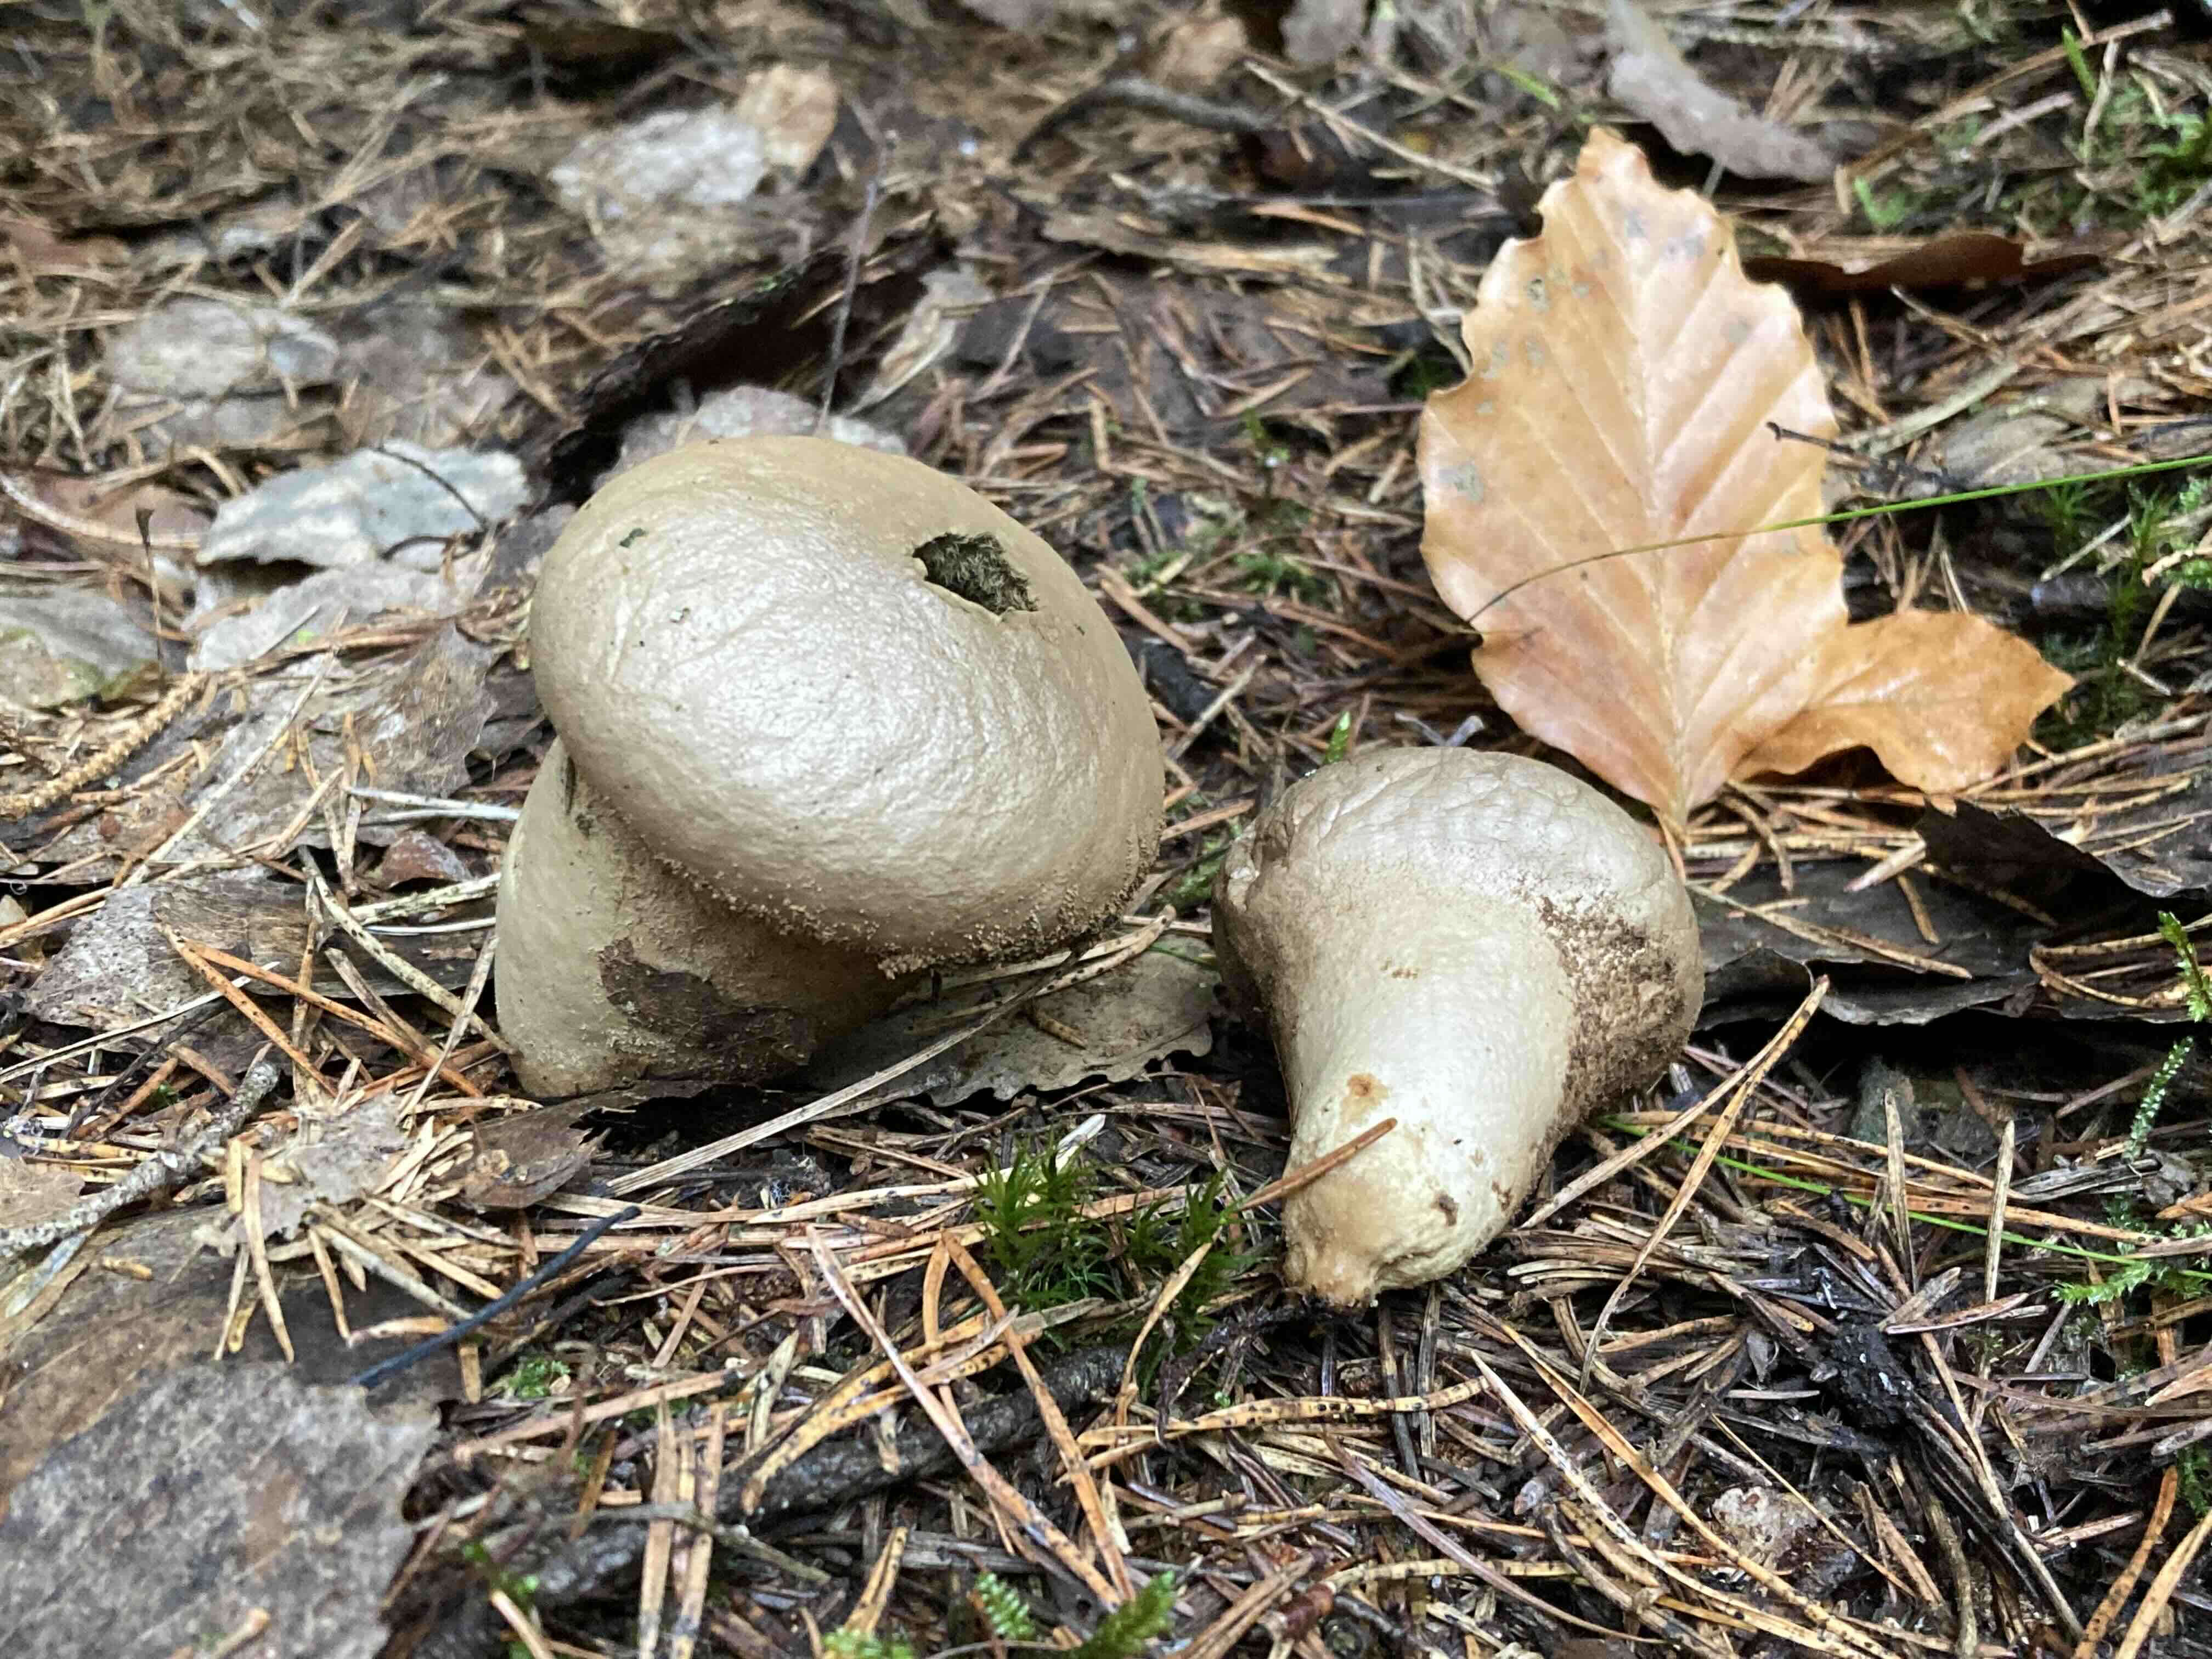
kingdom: Fungi
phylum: Basidiomycota
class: Agaricomycetes
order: Agaricales
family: Lycoperdaceae
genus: Lycoperdon
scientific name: Lycoperdon perlatum
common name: krystal-støvbold
